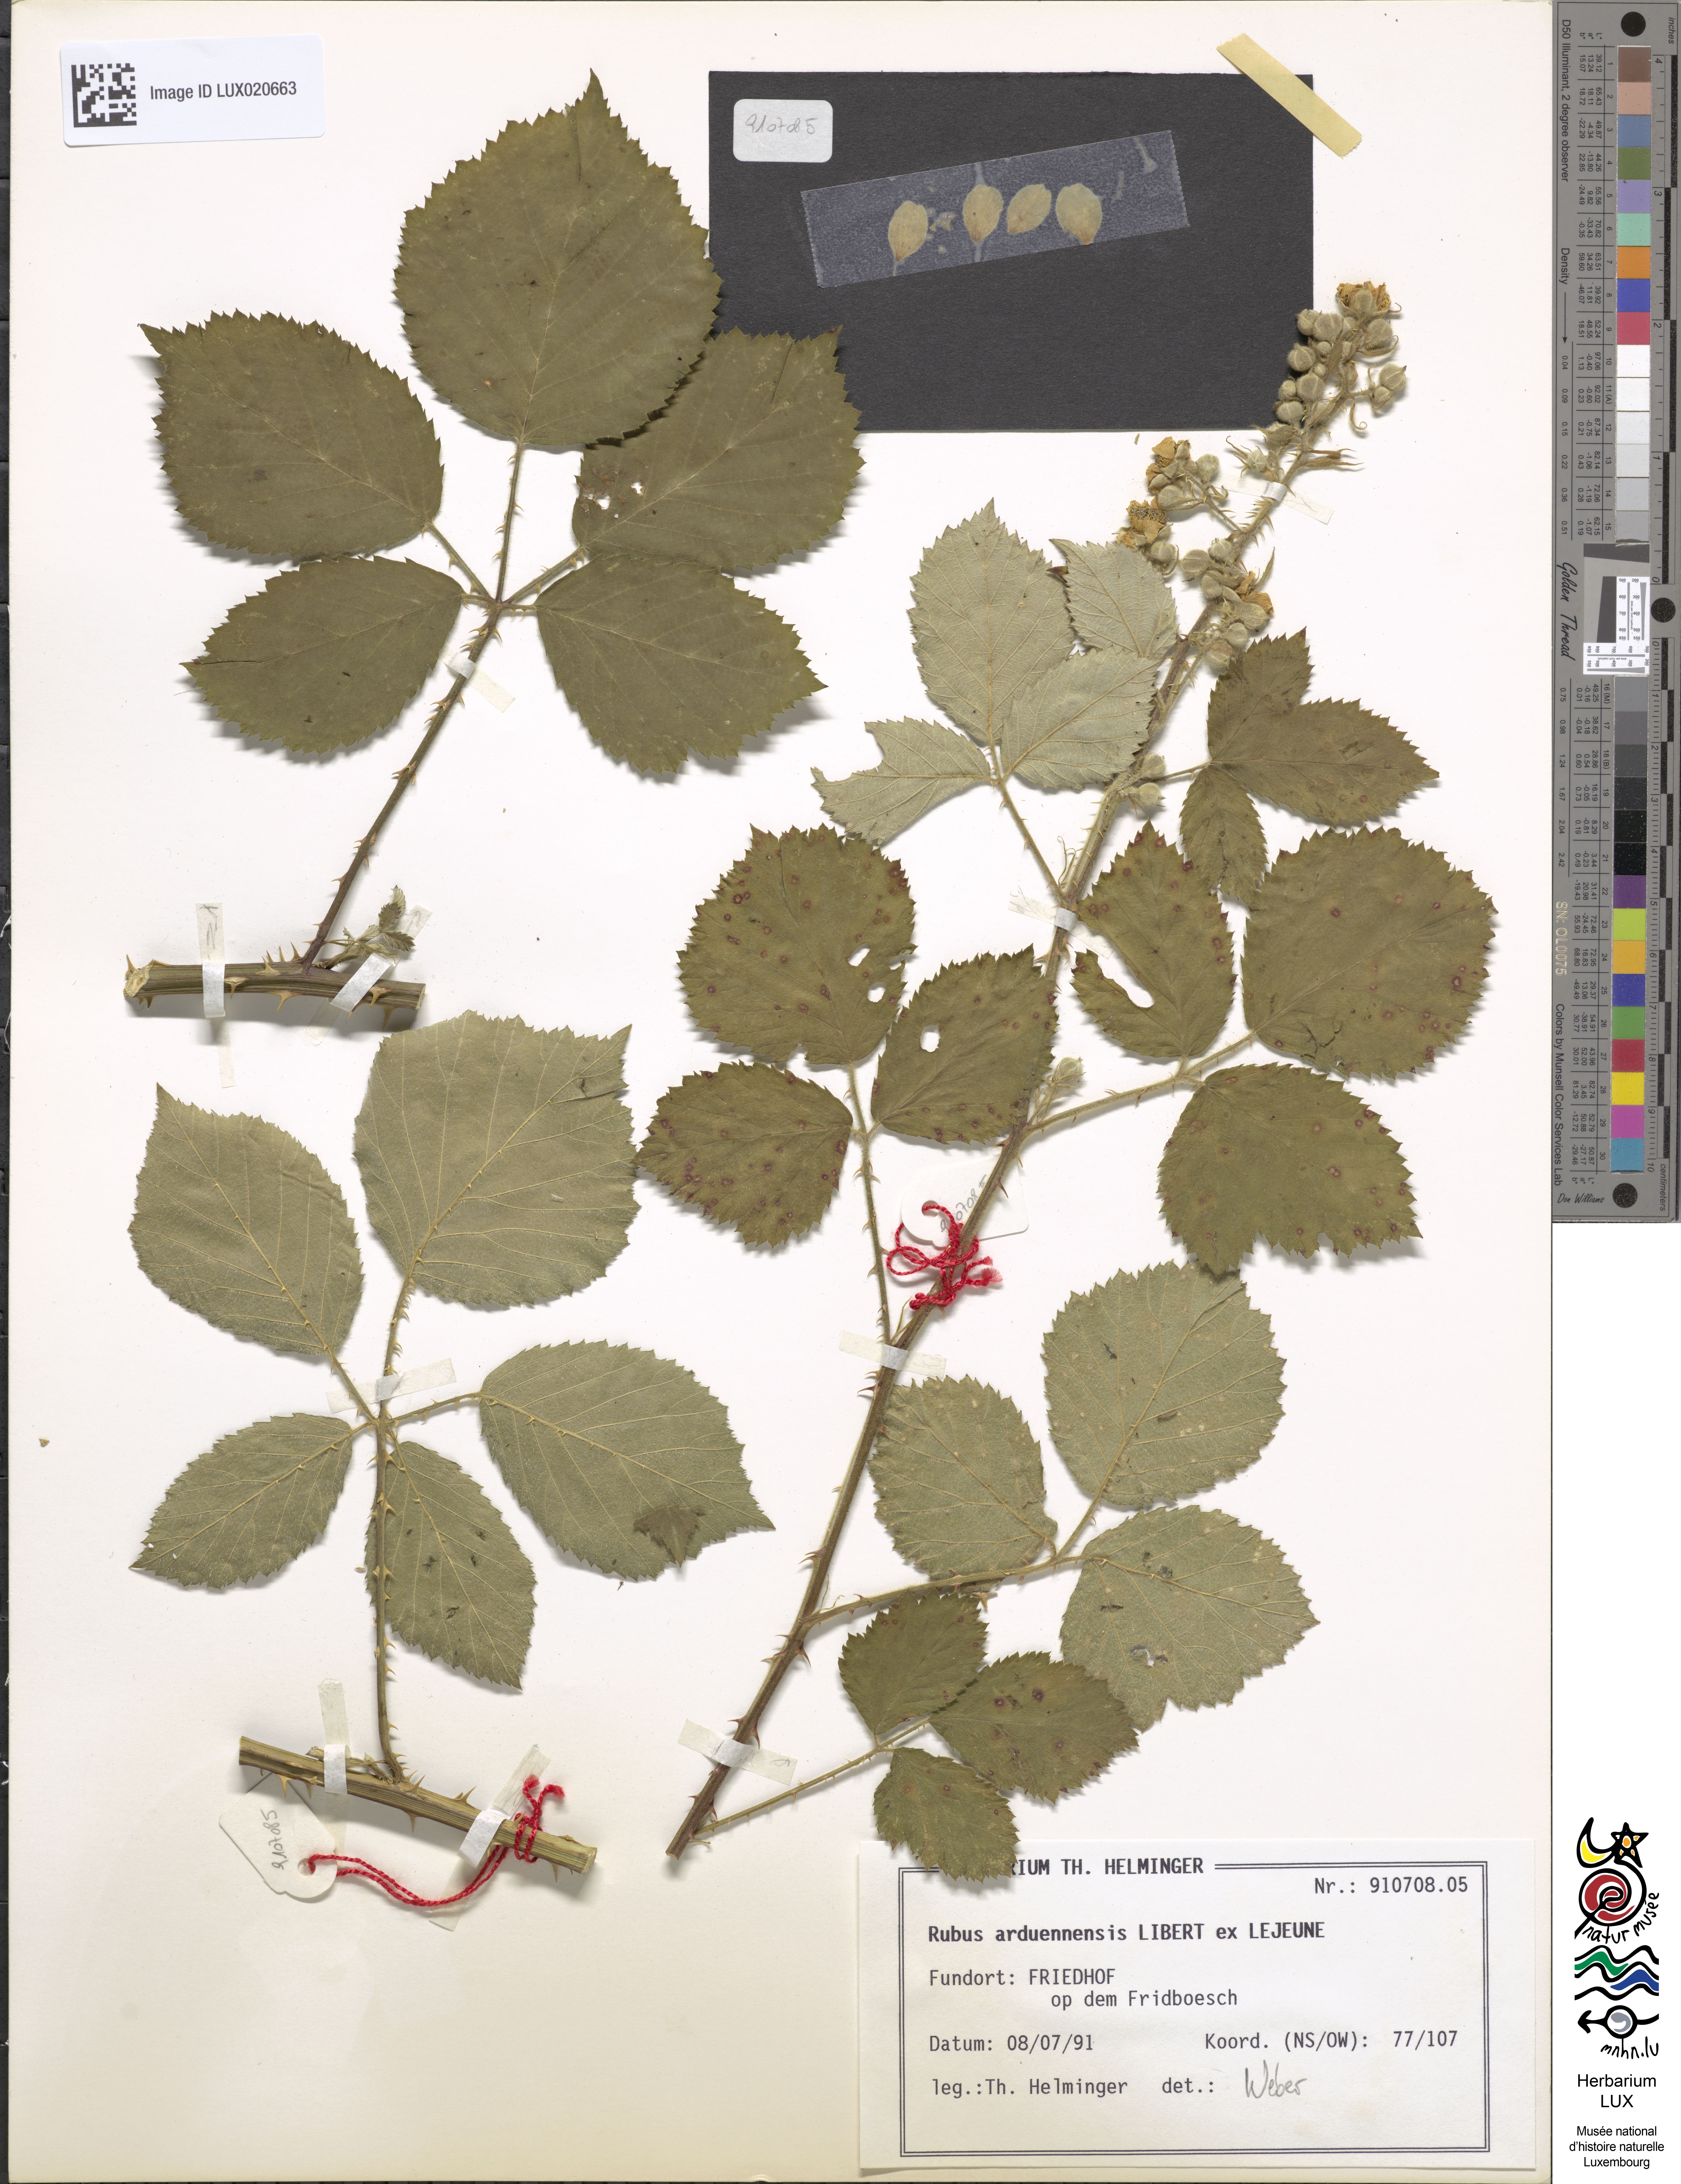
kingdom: Plantae
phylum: Tracheophyta
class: Magnoliopsida
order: Rosales
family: Rosaceae
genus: Rubus
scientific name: Rubus arduennensis
